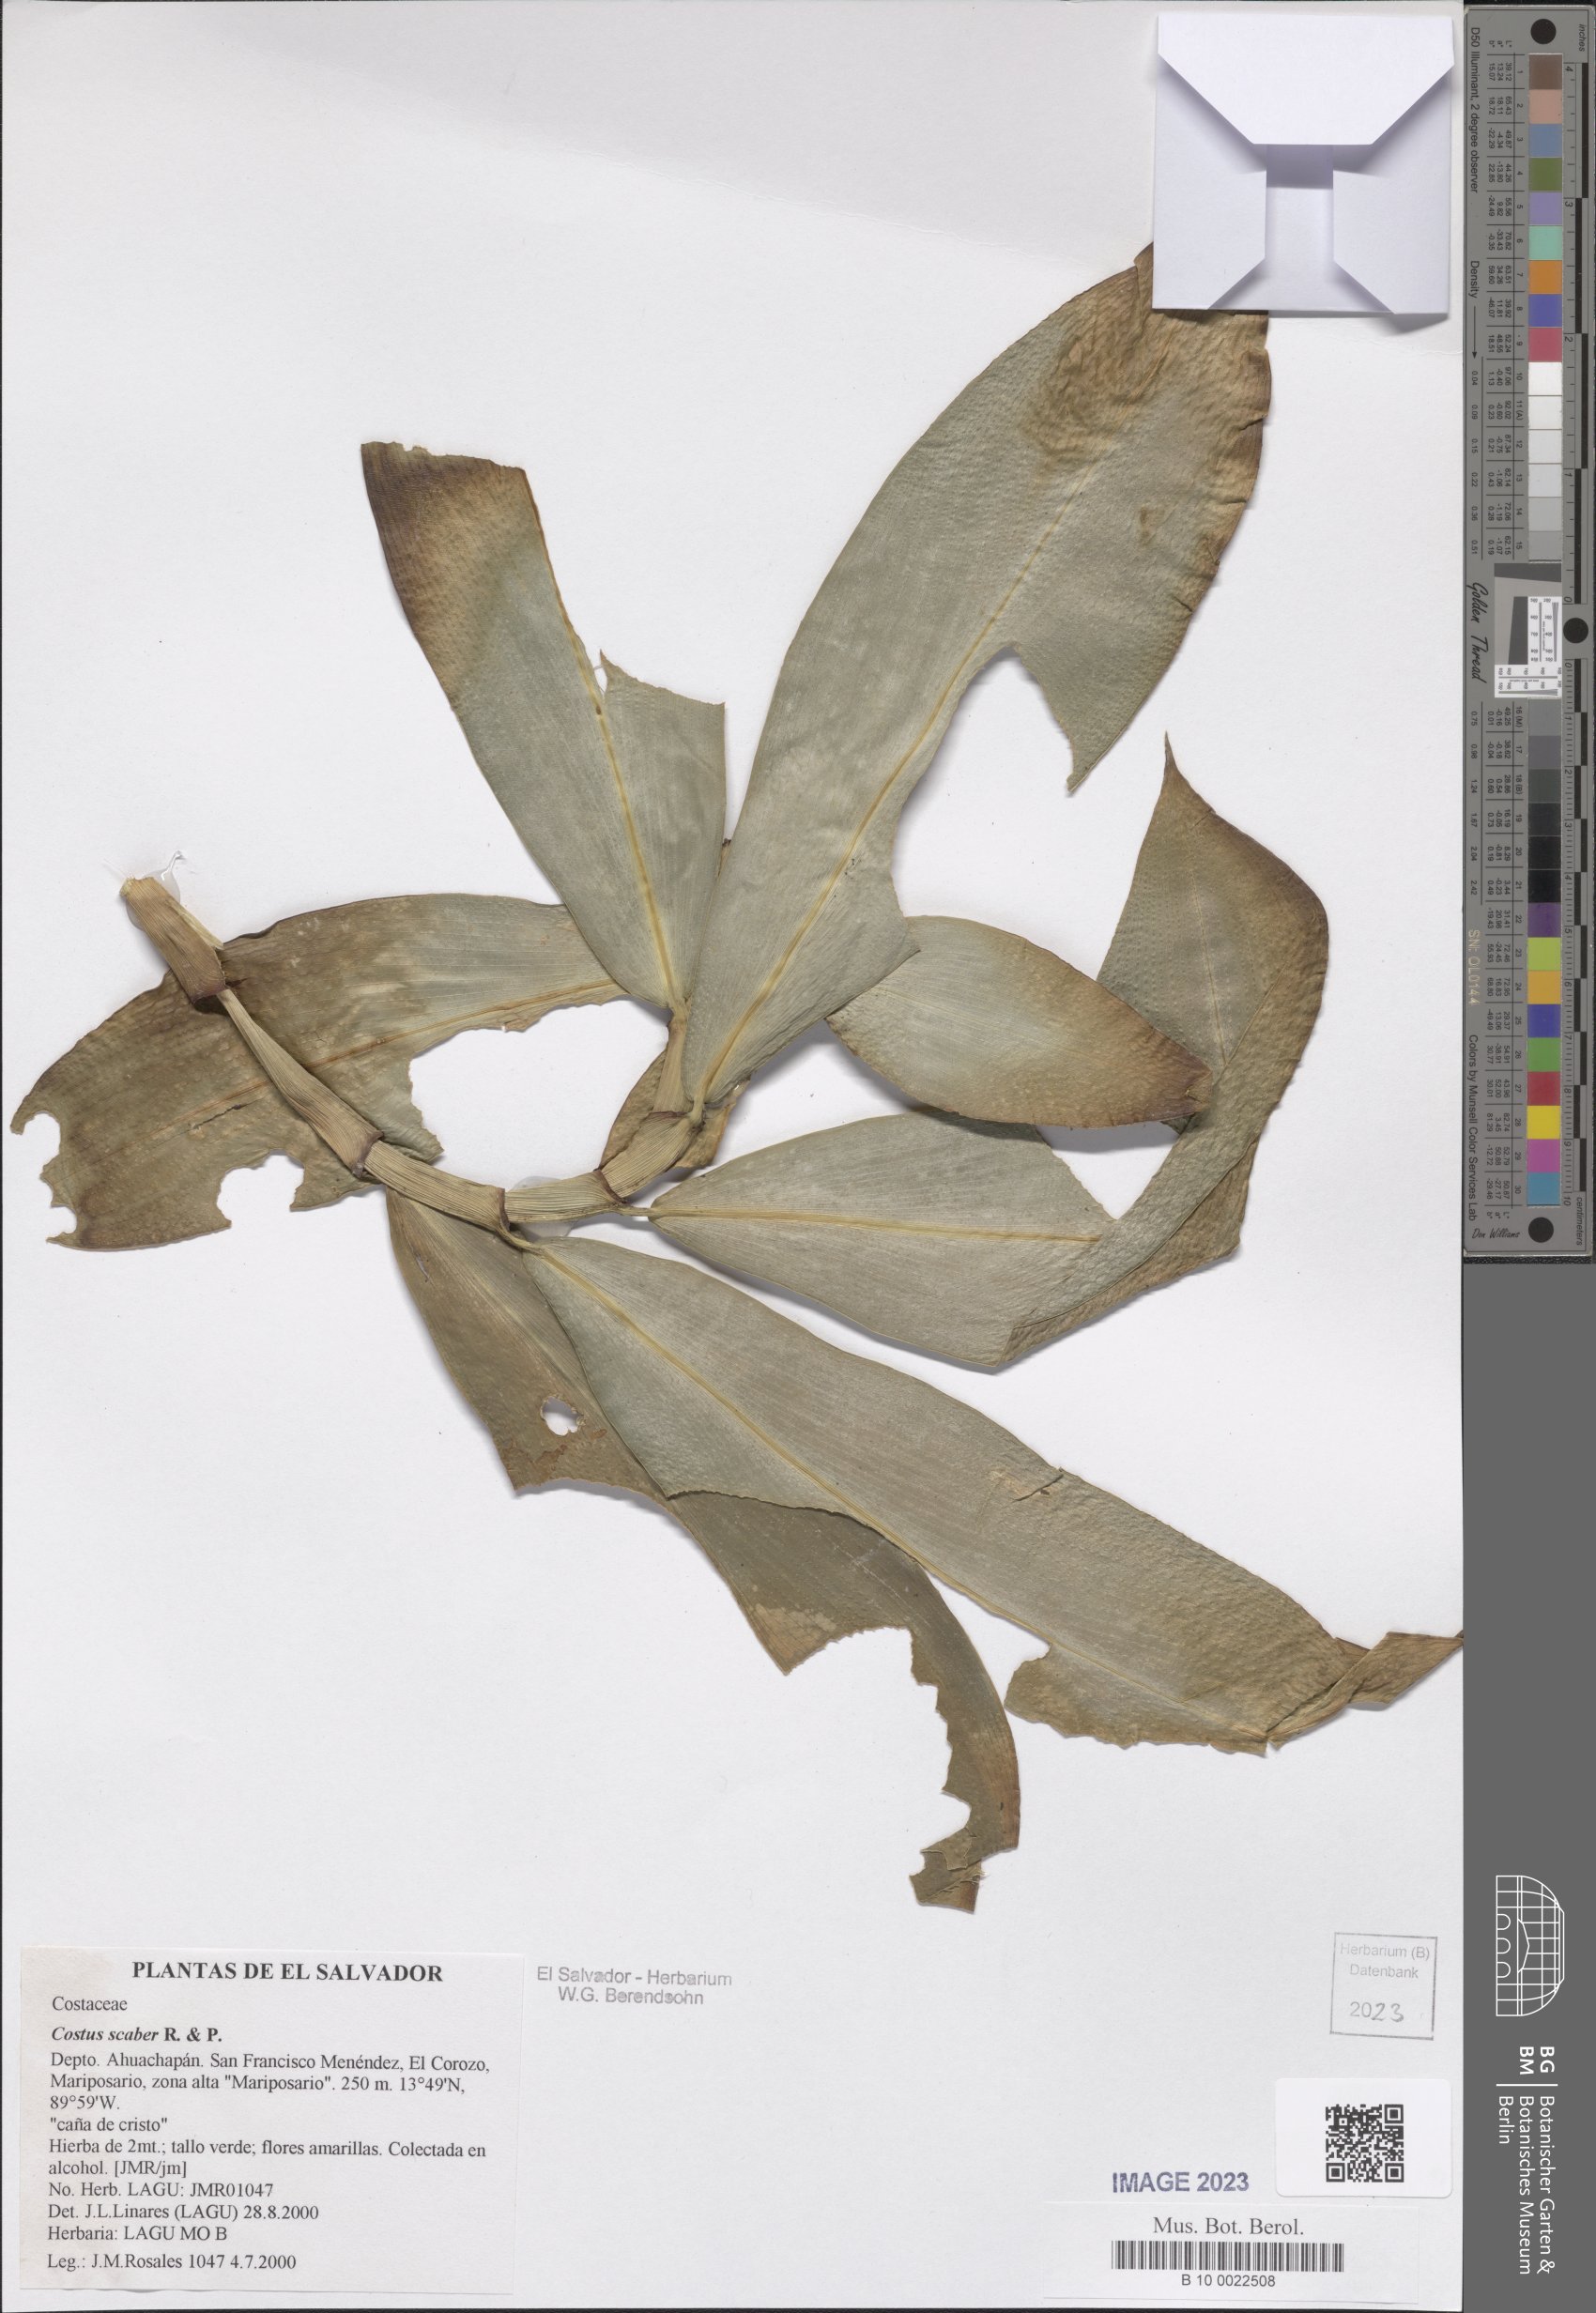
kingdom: Plantae
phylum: Tracheophyta
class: Liliopsida
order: Zingiberales
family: Costaceae
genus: Costus
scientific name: Costus scaber
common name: Spiral head ginger
